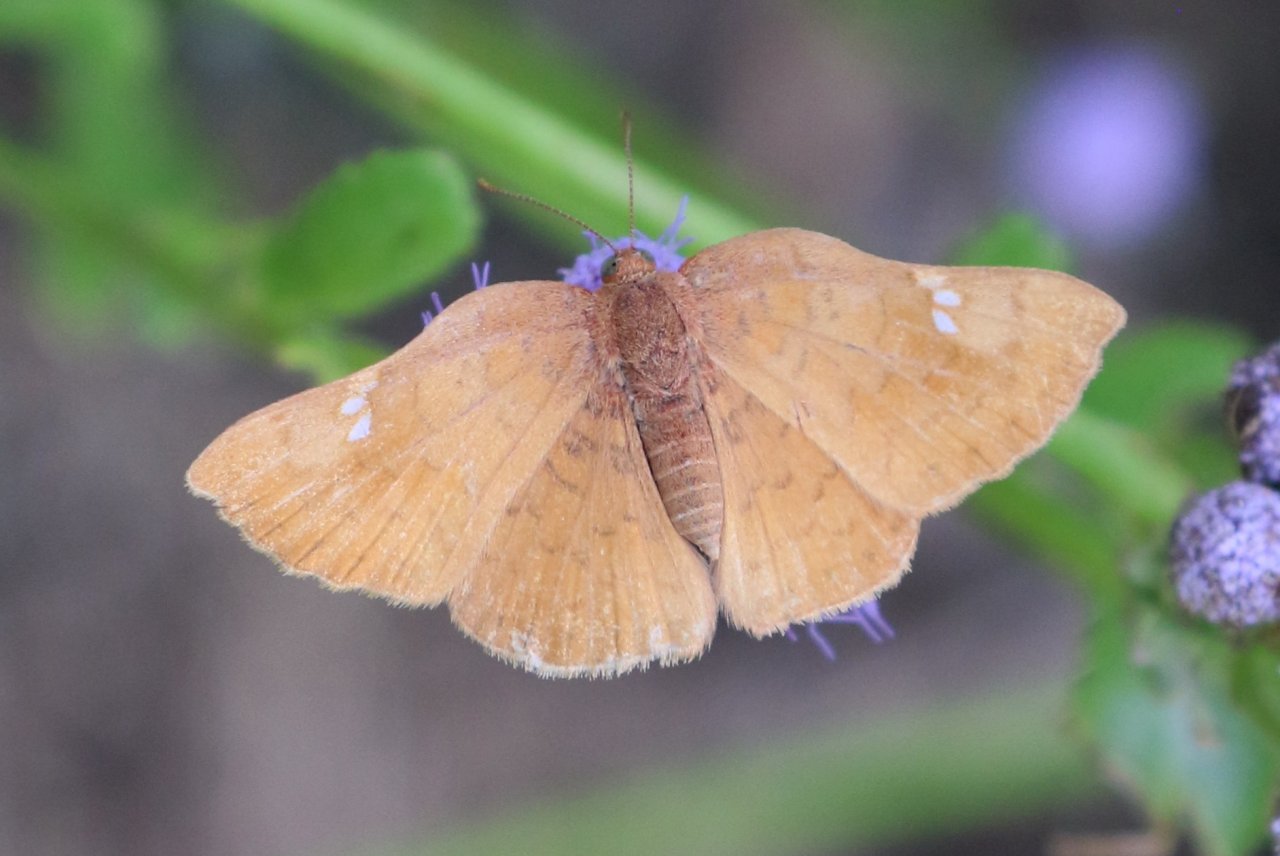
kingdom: Animalia
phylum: Arthropoda
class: Insecta
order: Lepidoptera
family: Lycaenidae
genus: Emesis
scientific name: Emesis emesia
